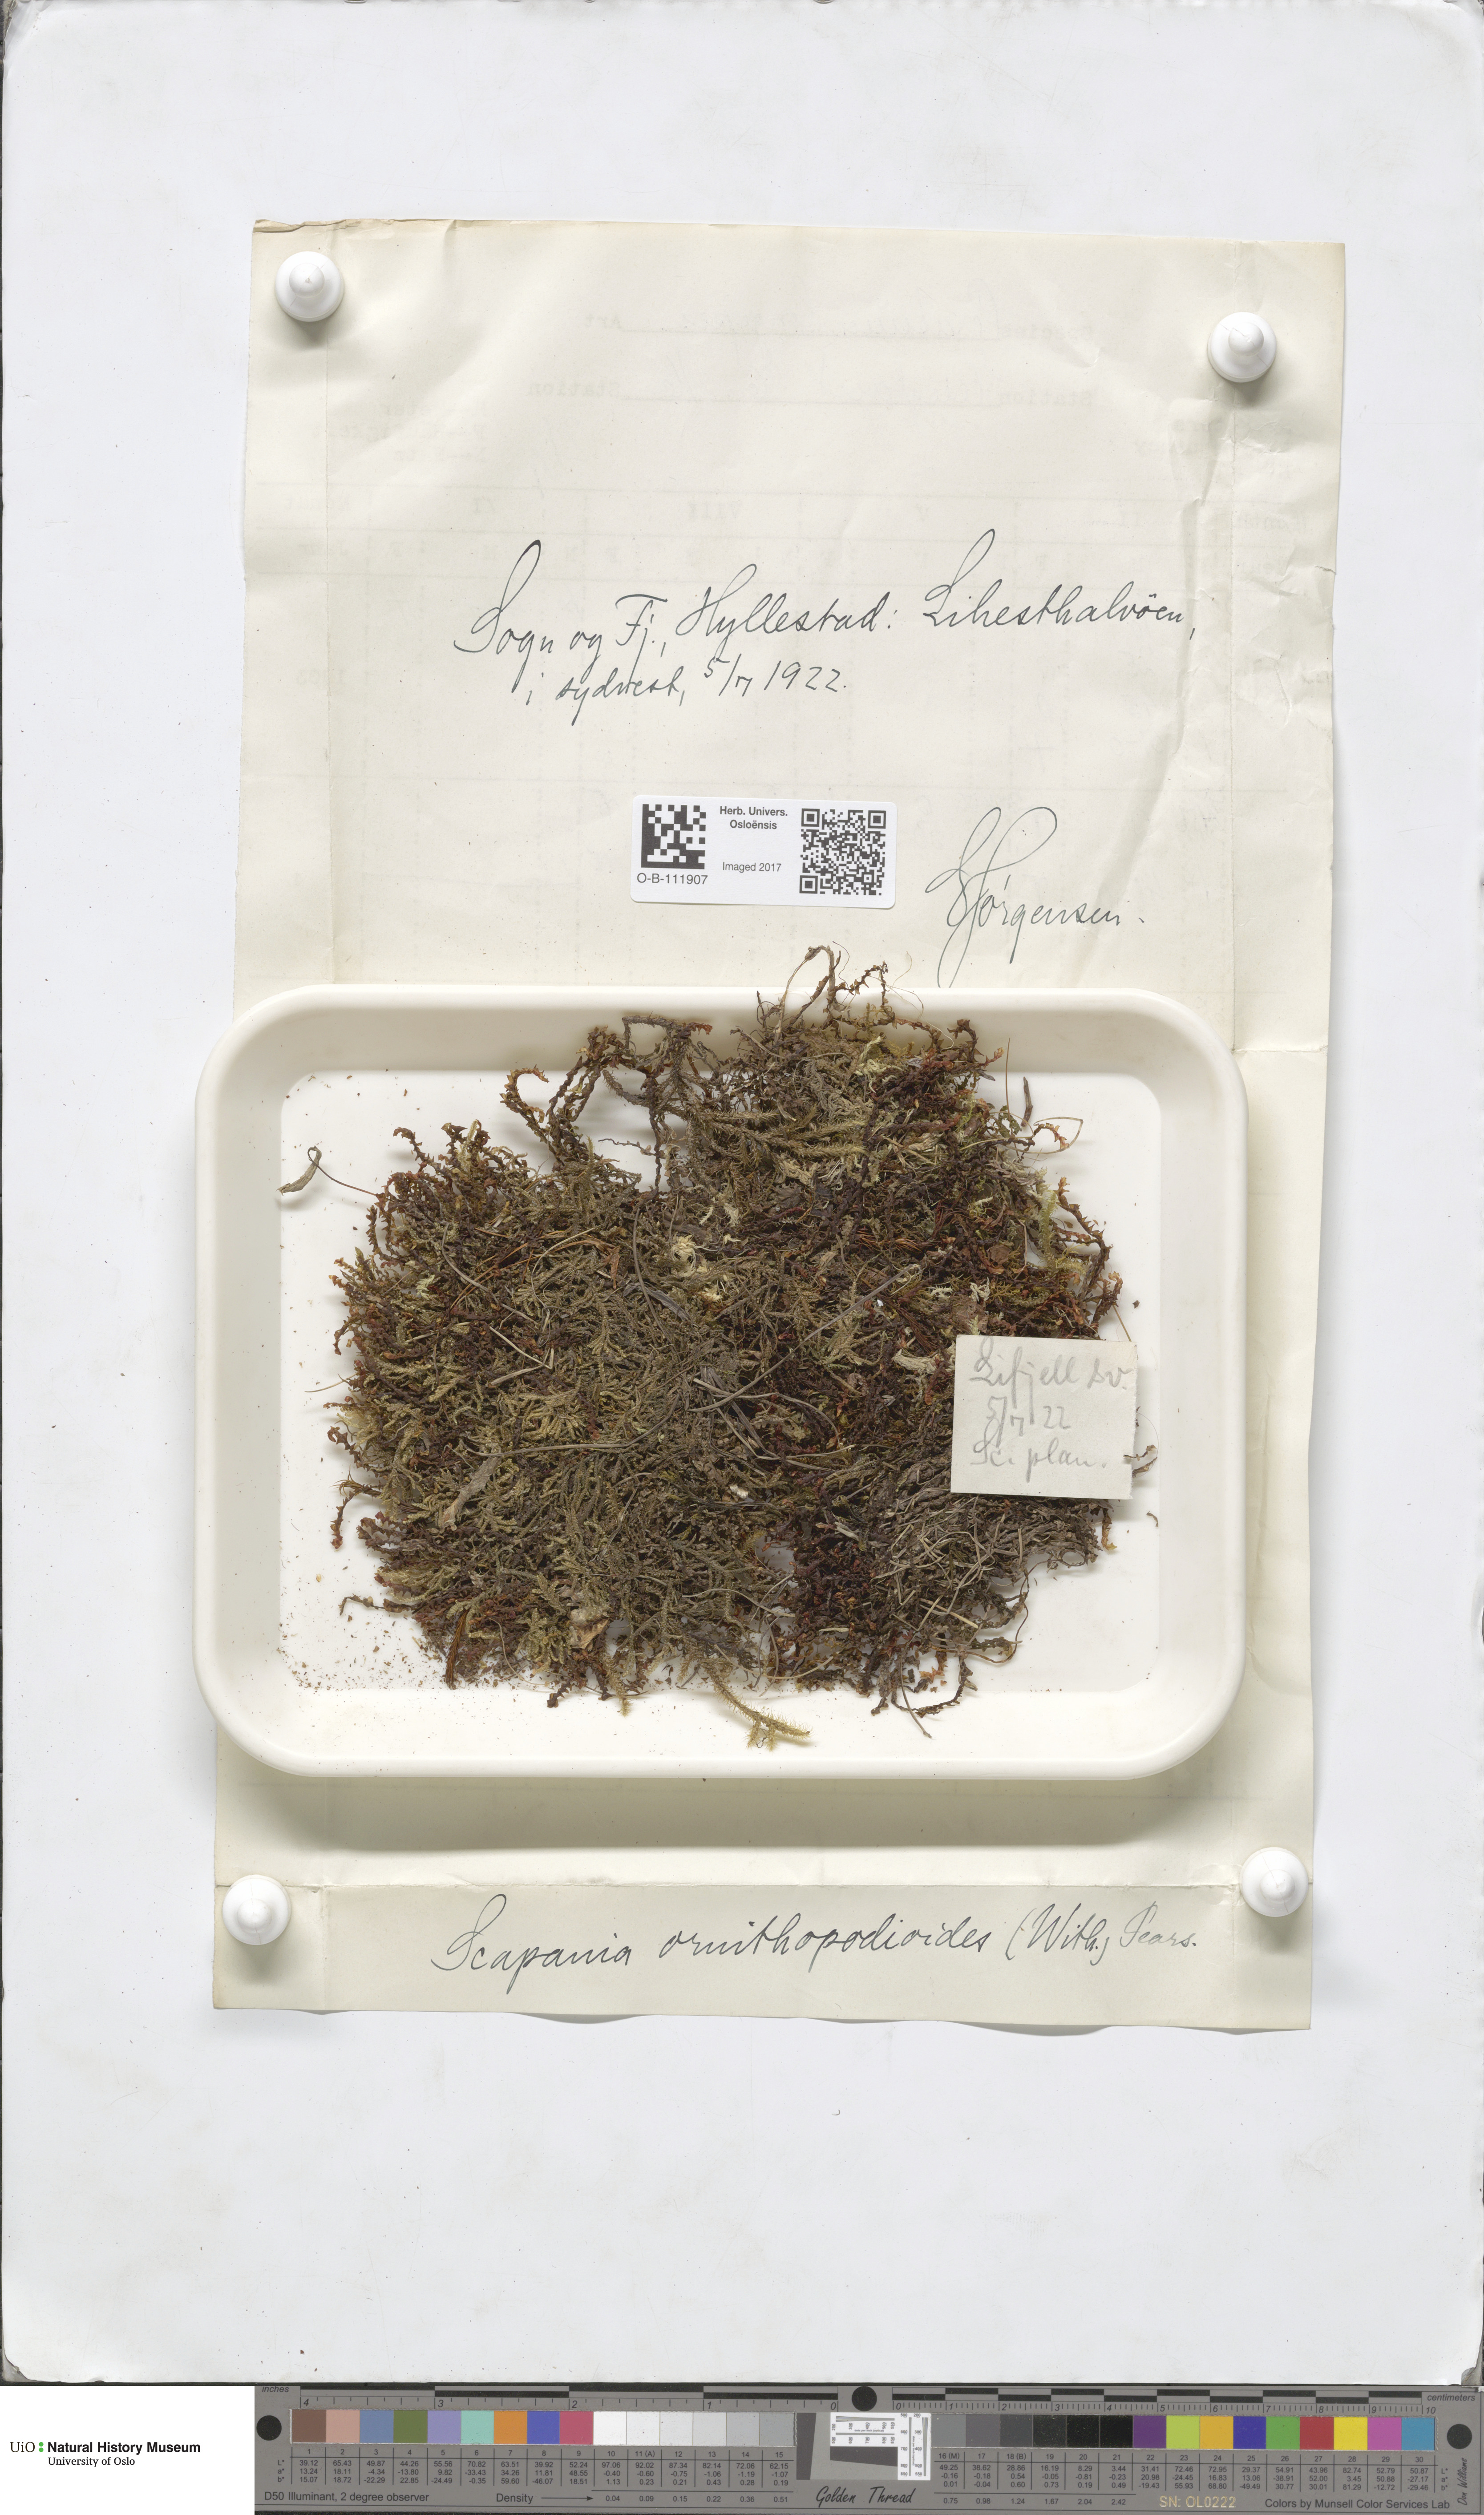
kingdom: Plantae
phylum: Marchantiophyta
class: Jungermanniopsida
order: Jungermanniales
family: Scapaniaceae
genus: Scapania
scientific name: Scapania ornithopodioides
